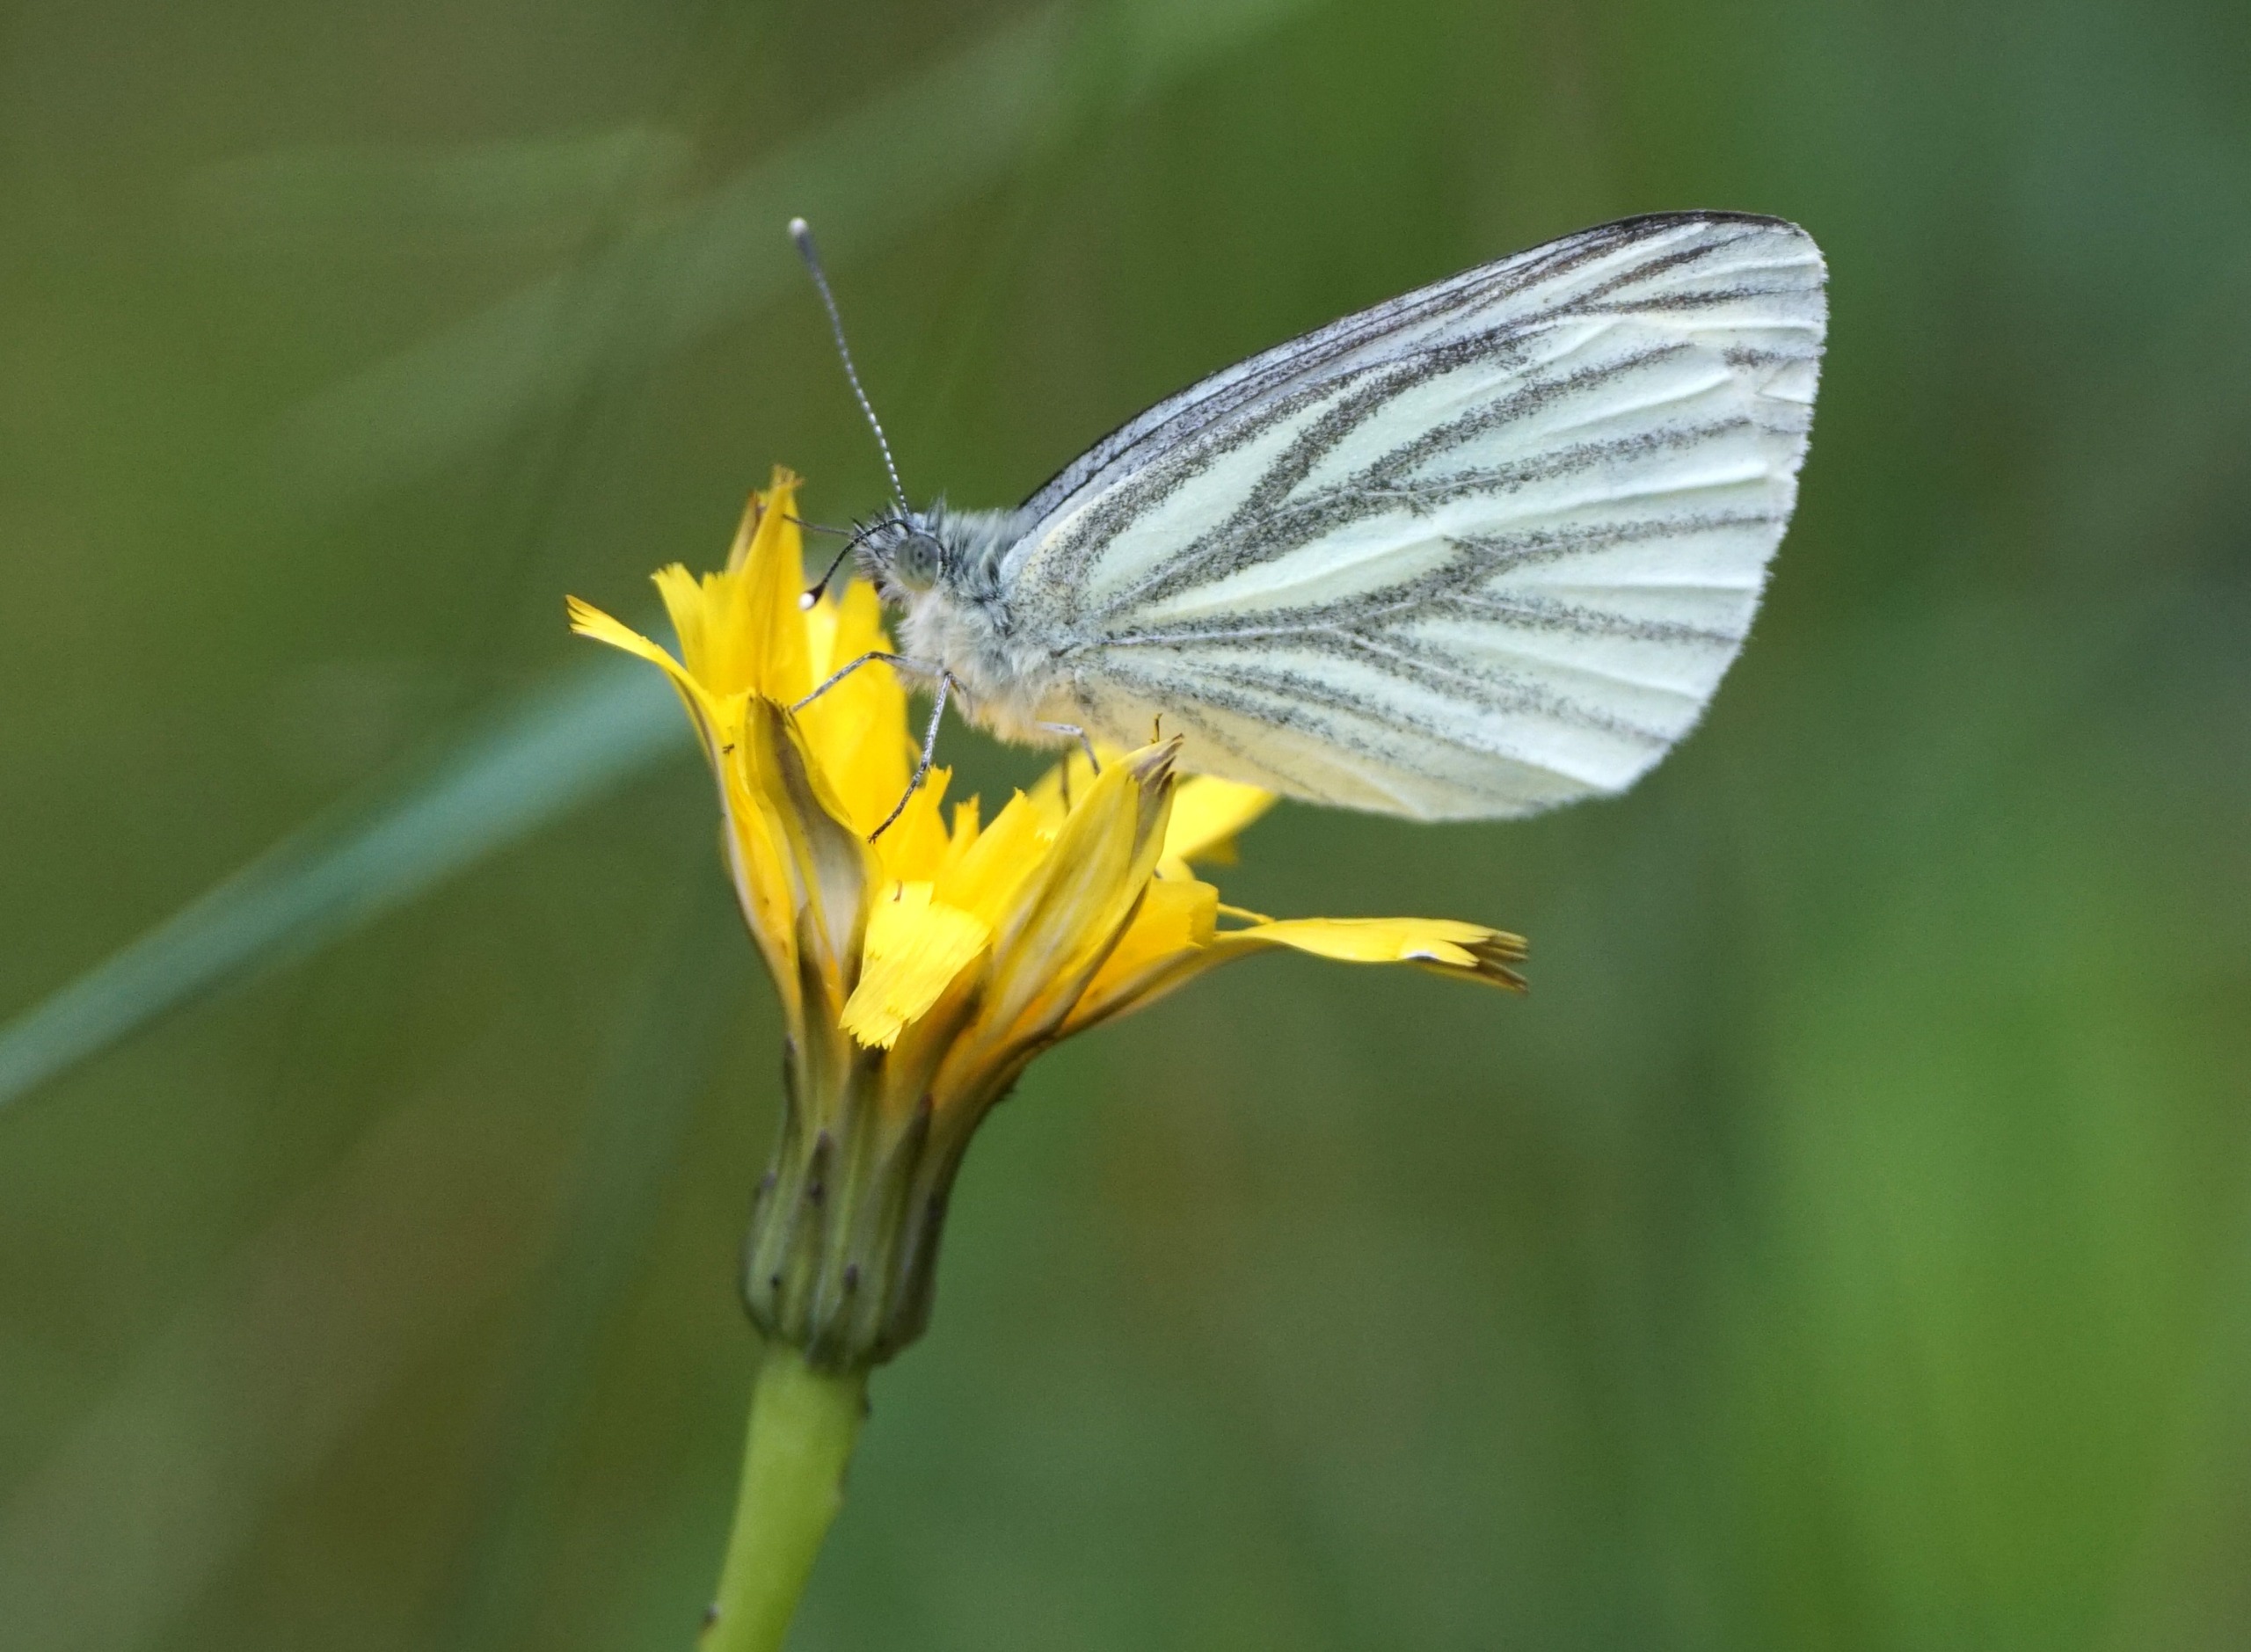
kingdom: Animalia
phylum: Arthropoda
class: Insecta
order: Lepidoptera
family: Pieridae
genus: Pieris
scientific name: Pieris napi
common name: Grønåret kålsommerfugl
